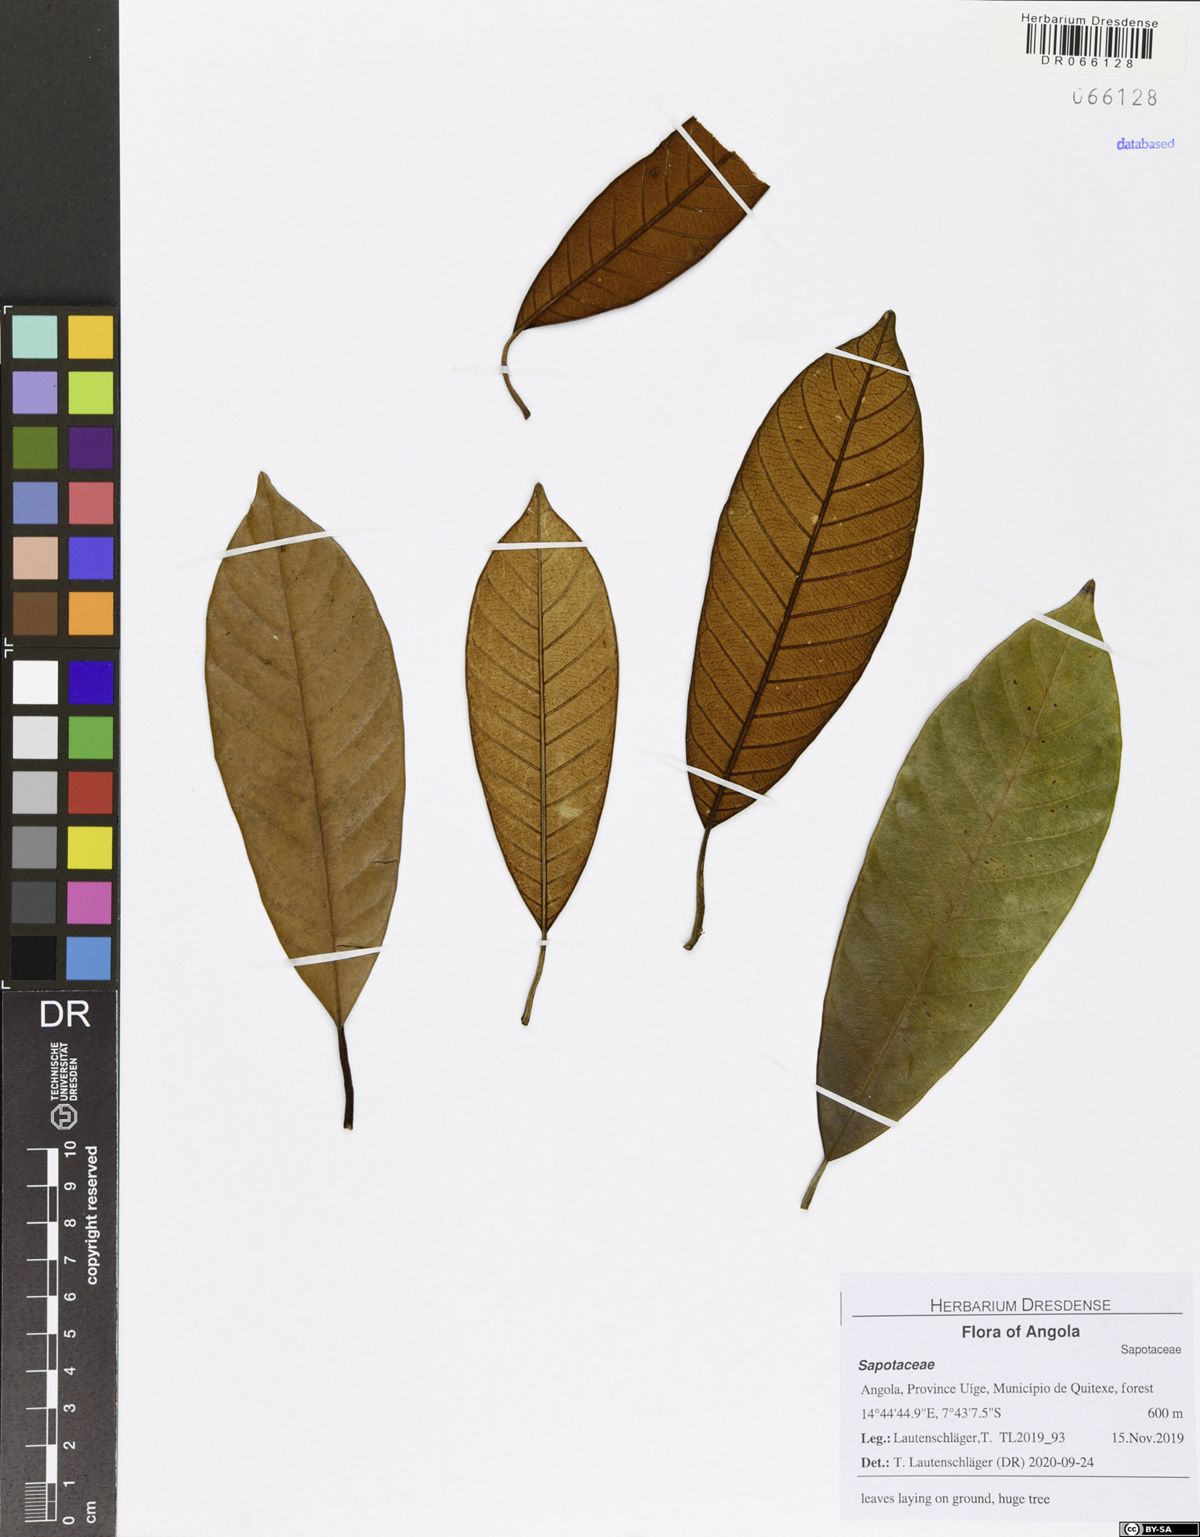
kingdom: Plantae
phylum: Tracheophyta
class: Magnoliopsida
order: Ericales
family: Sapotaceae
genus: Gambeya
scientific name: Gambeya gorungosana
